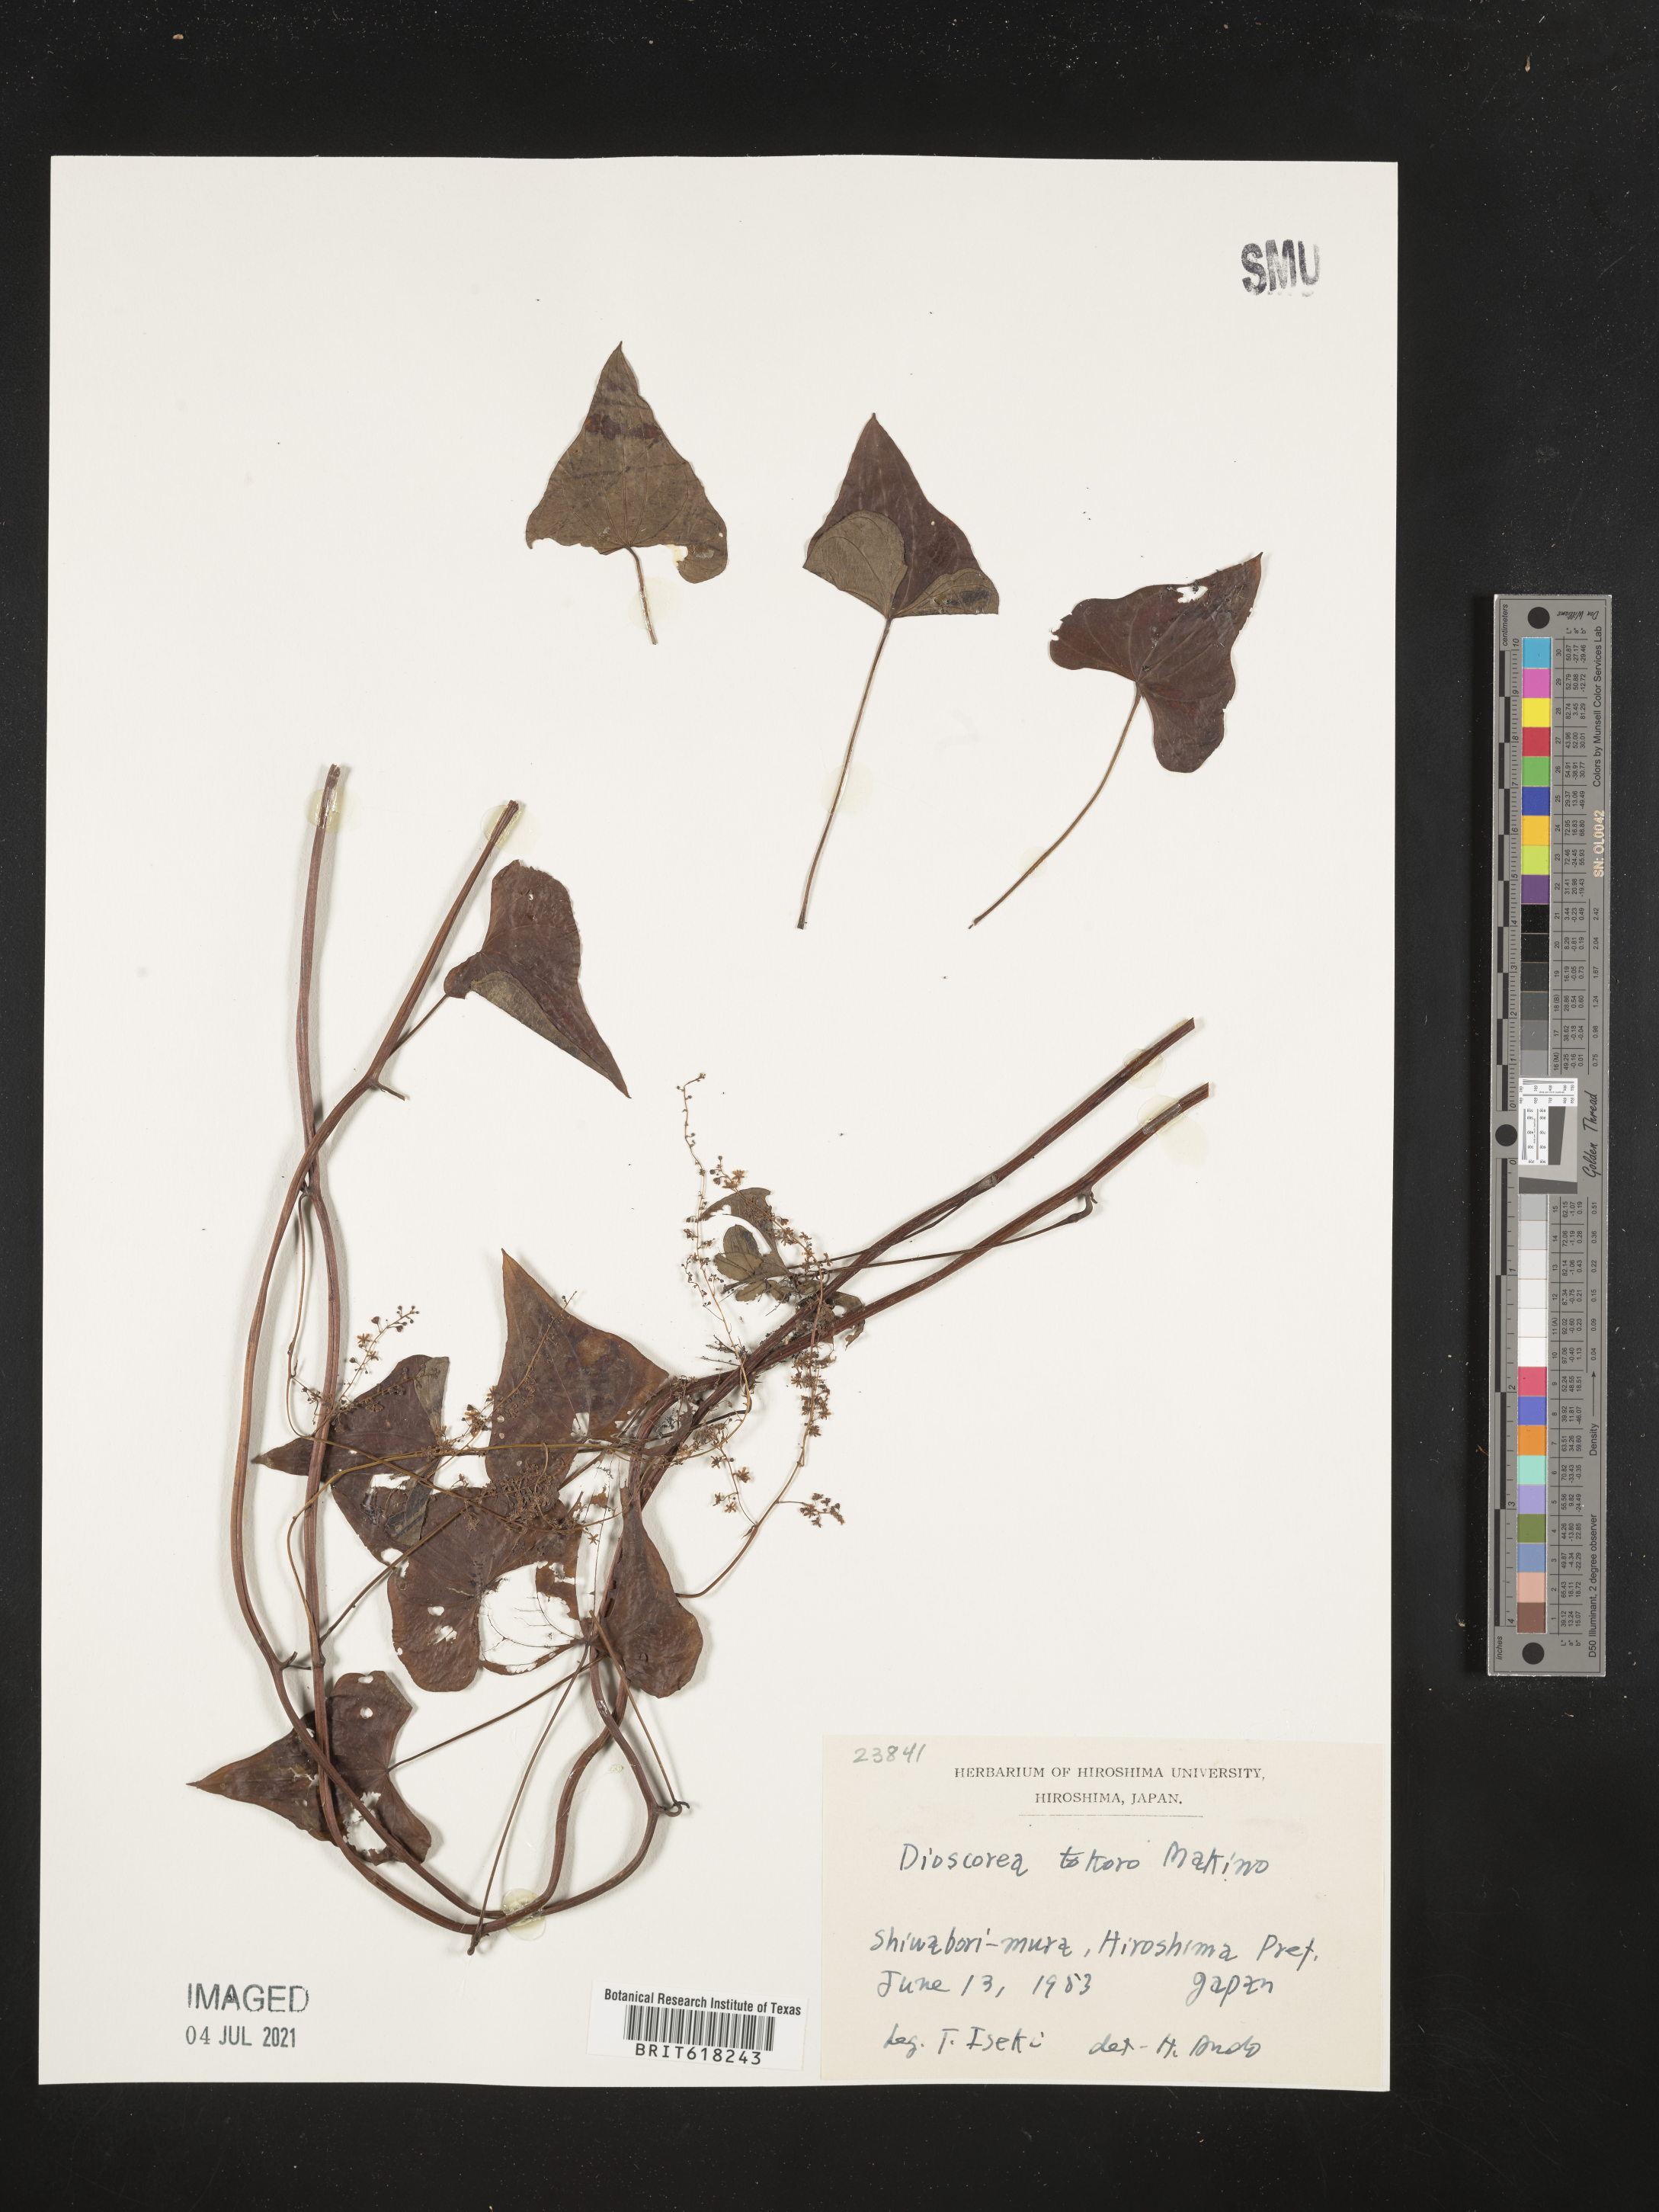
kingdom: Plantae
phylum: Tracheophyta
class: Liliopsida
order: Dioscoreales
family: Dioscoreaceae
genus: Dioscorea
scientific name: Dioscorea tokoro
